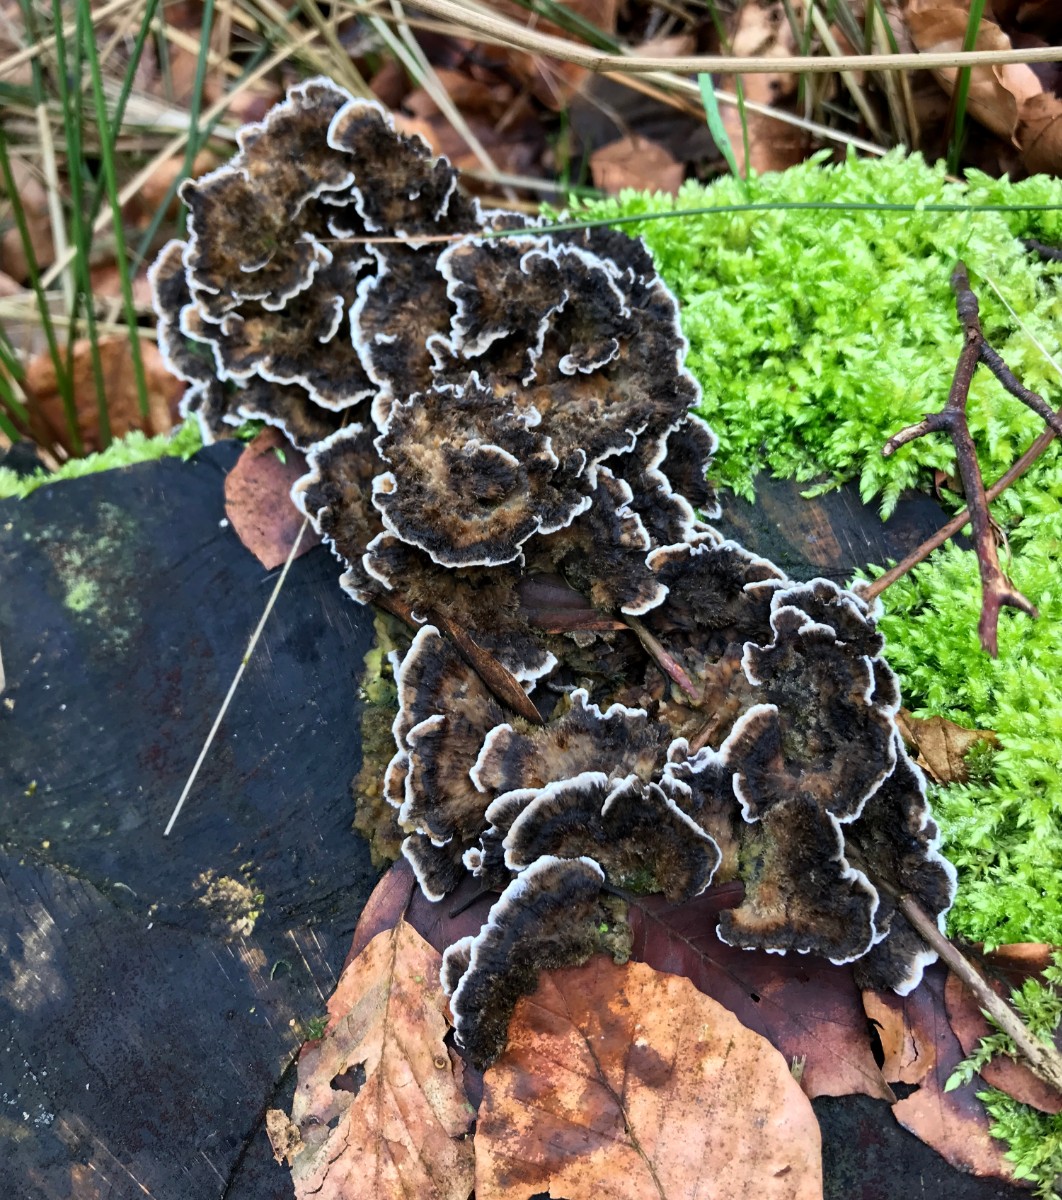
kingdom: Fungi
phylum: Basidiomycota
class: Agaricomycetes
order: Polyporales
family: Phanerochaetaceae
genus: Bjerkandera
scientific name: Bjerkandera adusta
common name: sveden sodporesvamp
